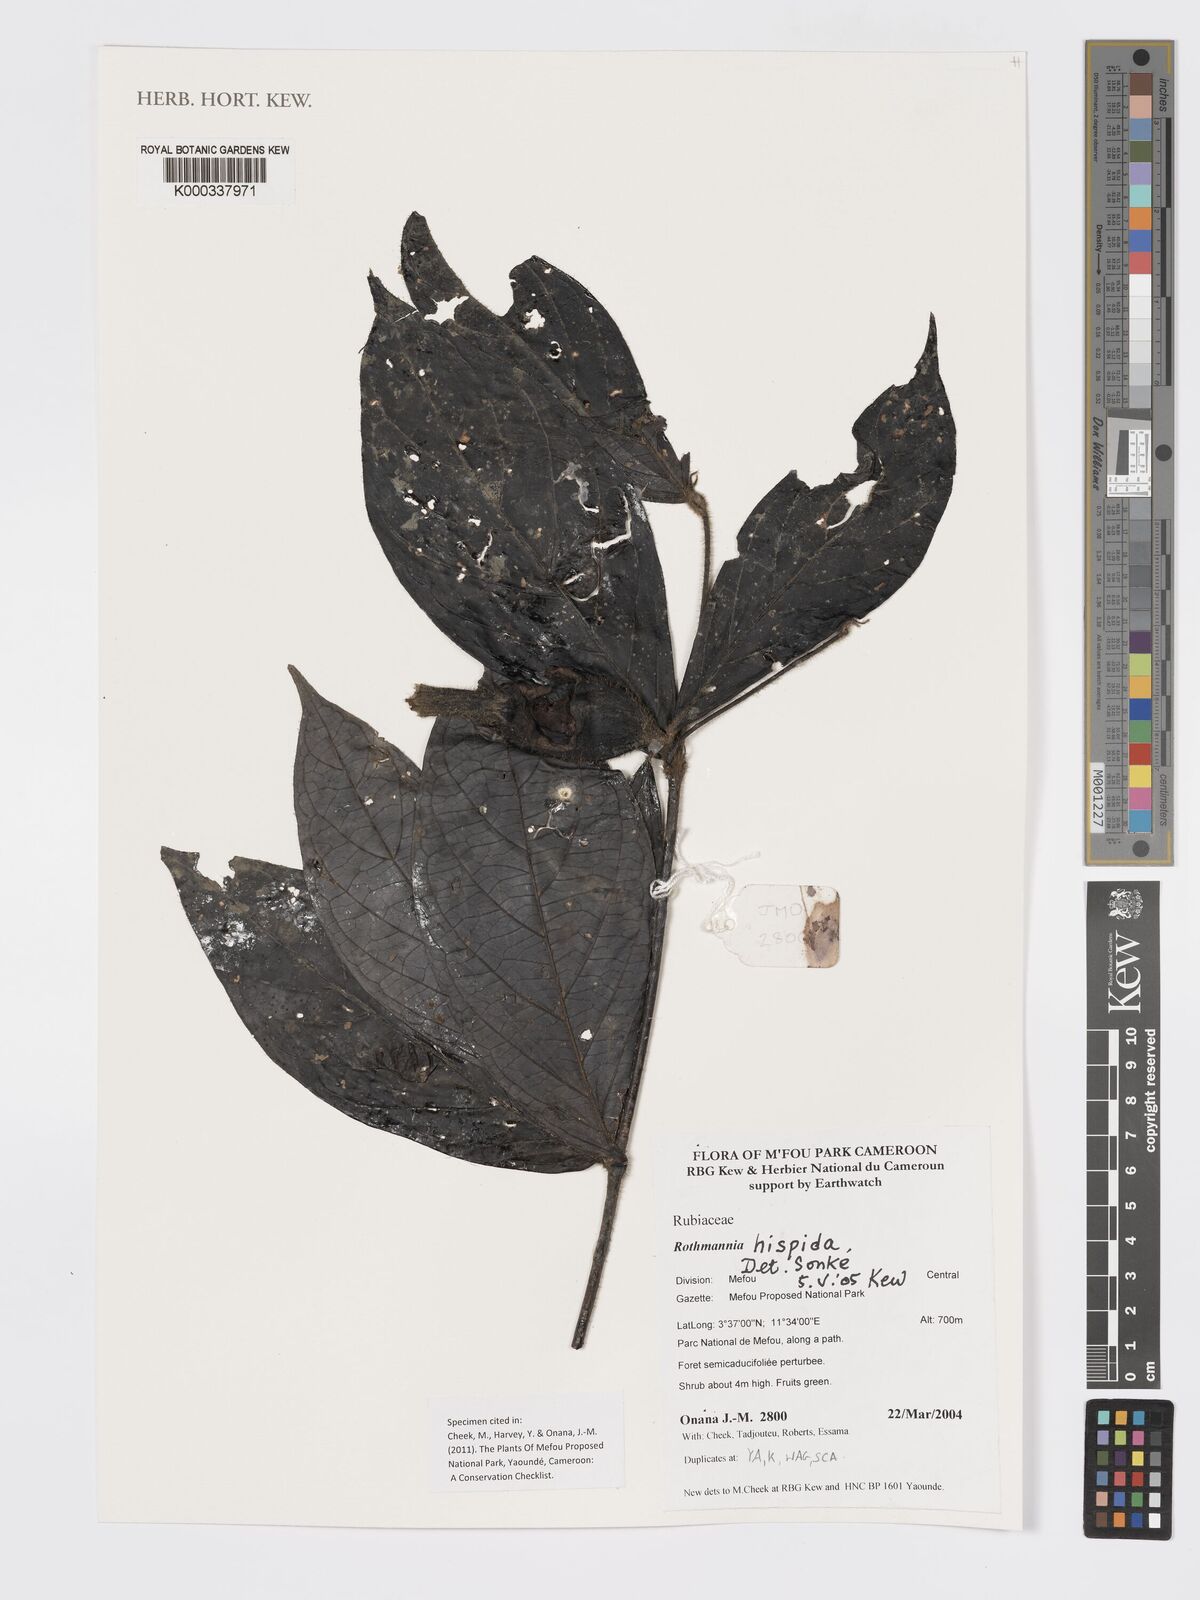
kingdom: Plantae
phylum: Tracheophyta
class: Magnoliopsida
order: Gentianales
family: Rubiaceae
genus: Rothmannia
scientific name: Rothmannia hispida
